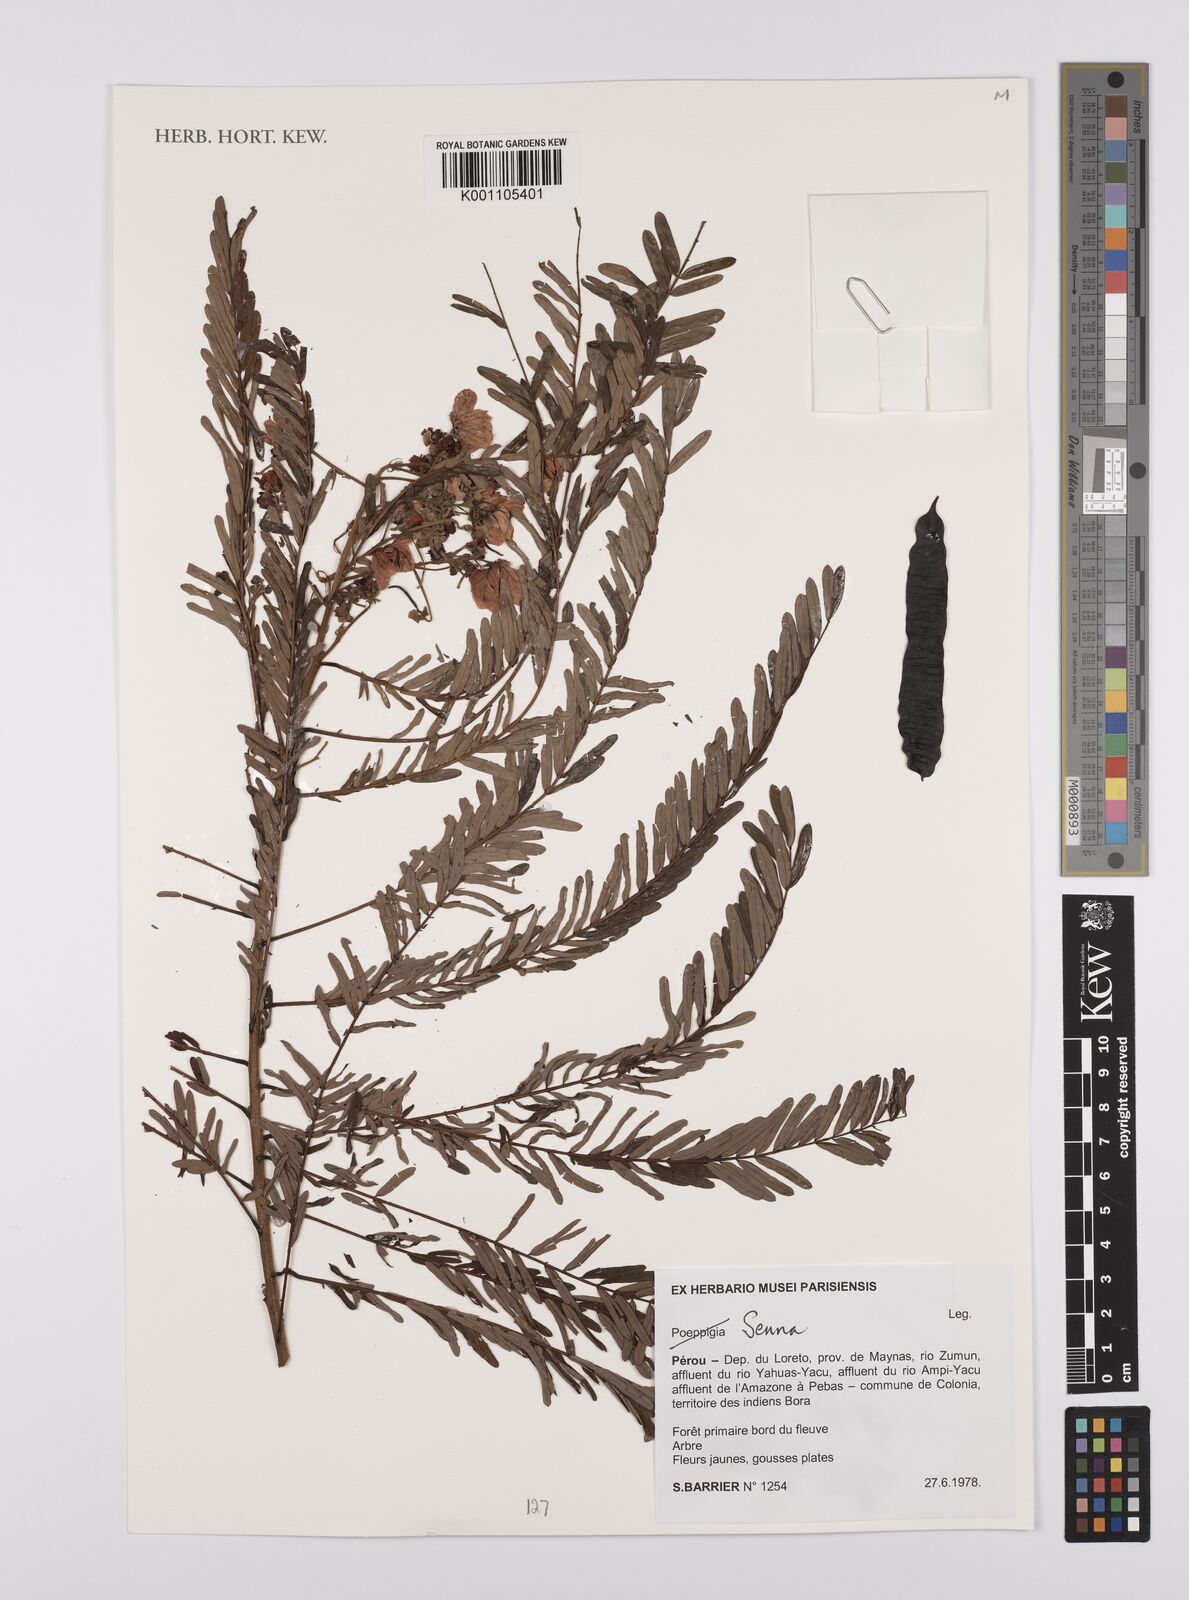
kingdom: Plantae
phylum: Tracheophyta
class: Magnoliopsida
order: Fabales
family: Fabaceae
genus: Senna
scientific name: Senna
